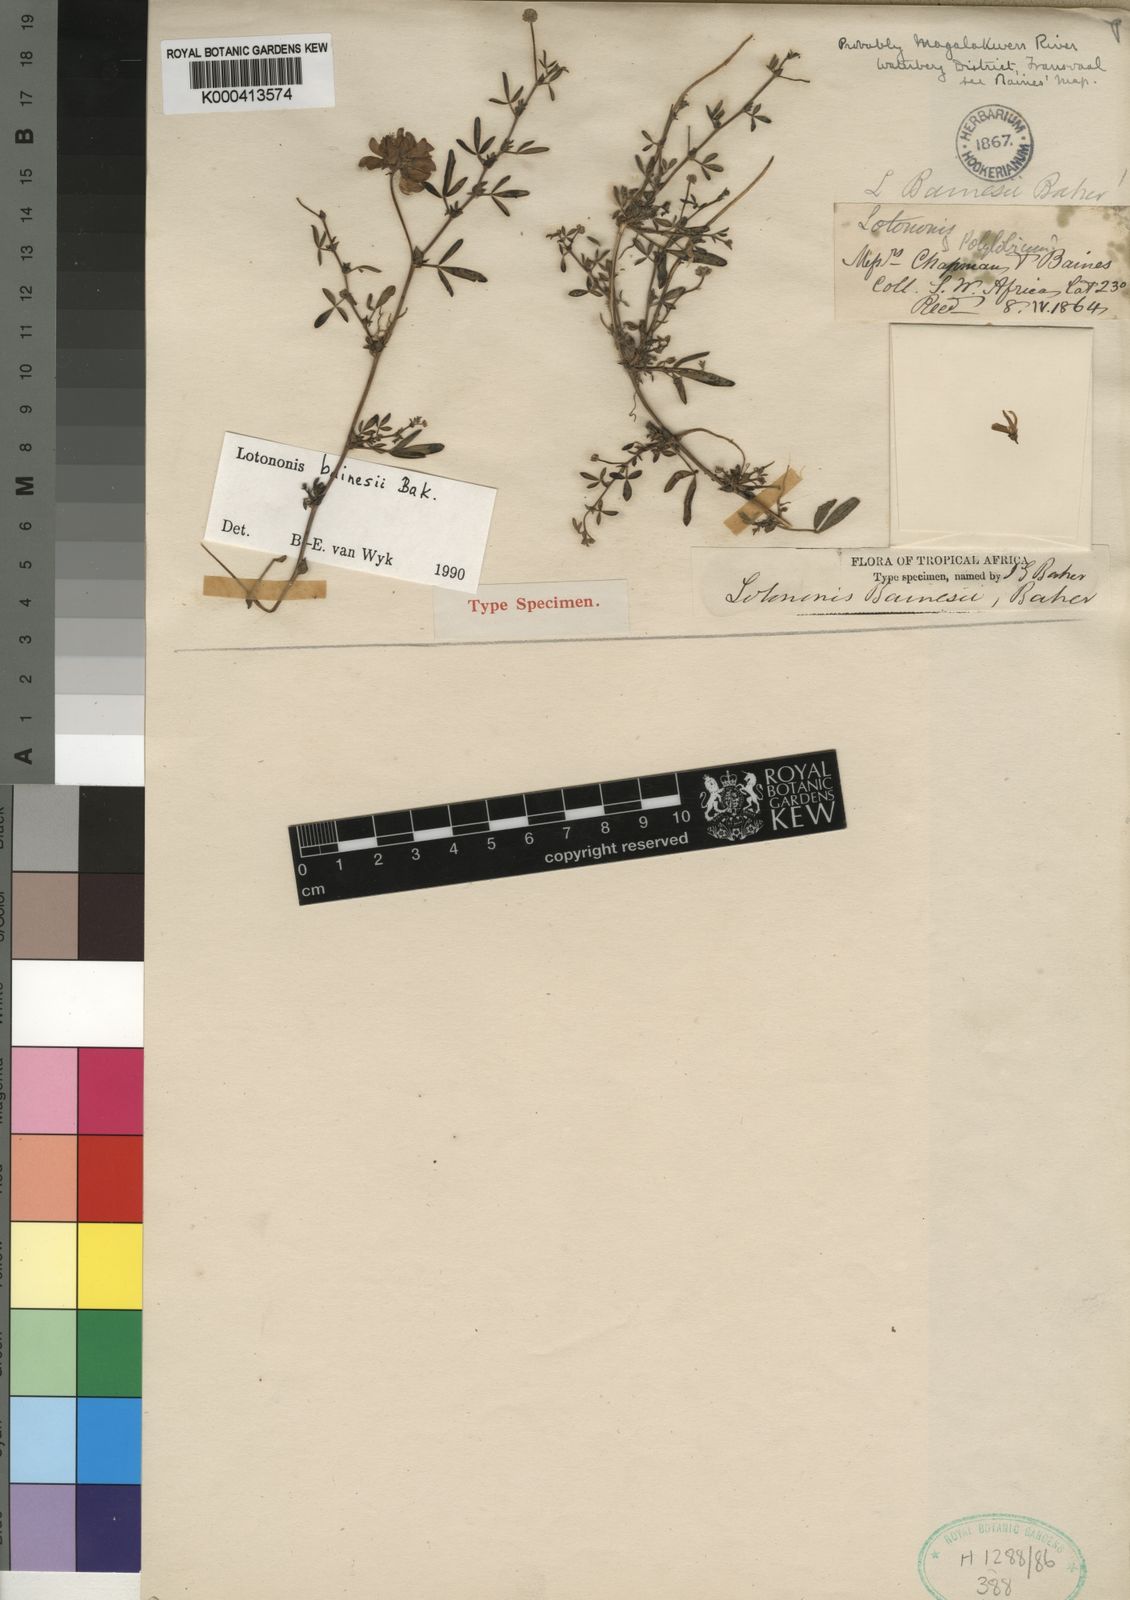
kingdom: Plantae
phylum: Tracheophyta
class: Magnoliopsida
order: Fabales
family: Fabaceae
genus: Listia
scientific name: Listia bainesii
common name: Lotononis
